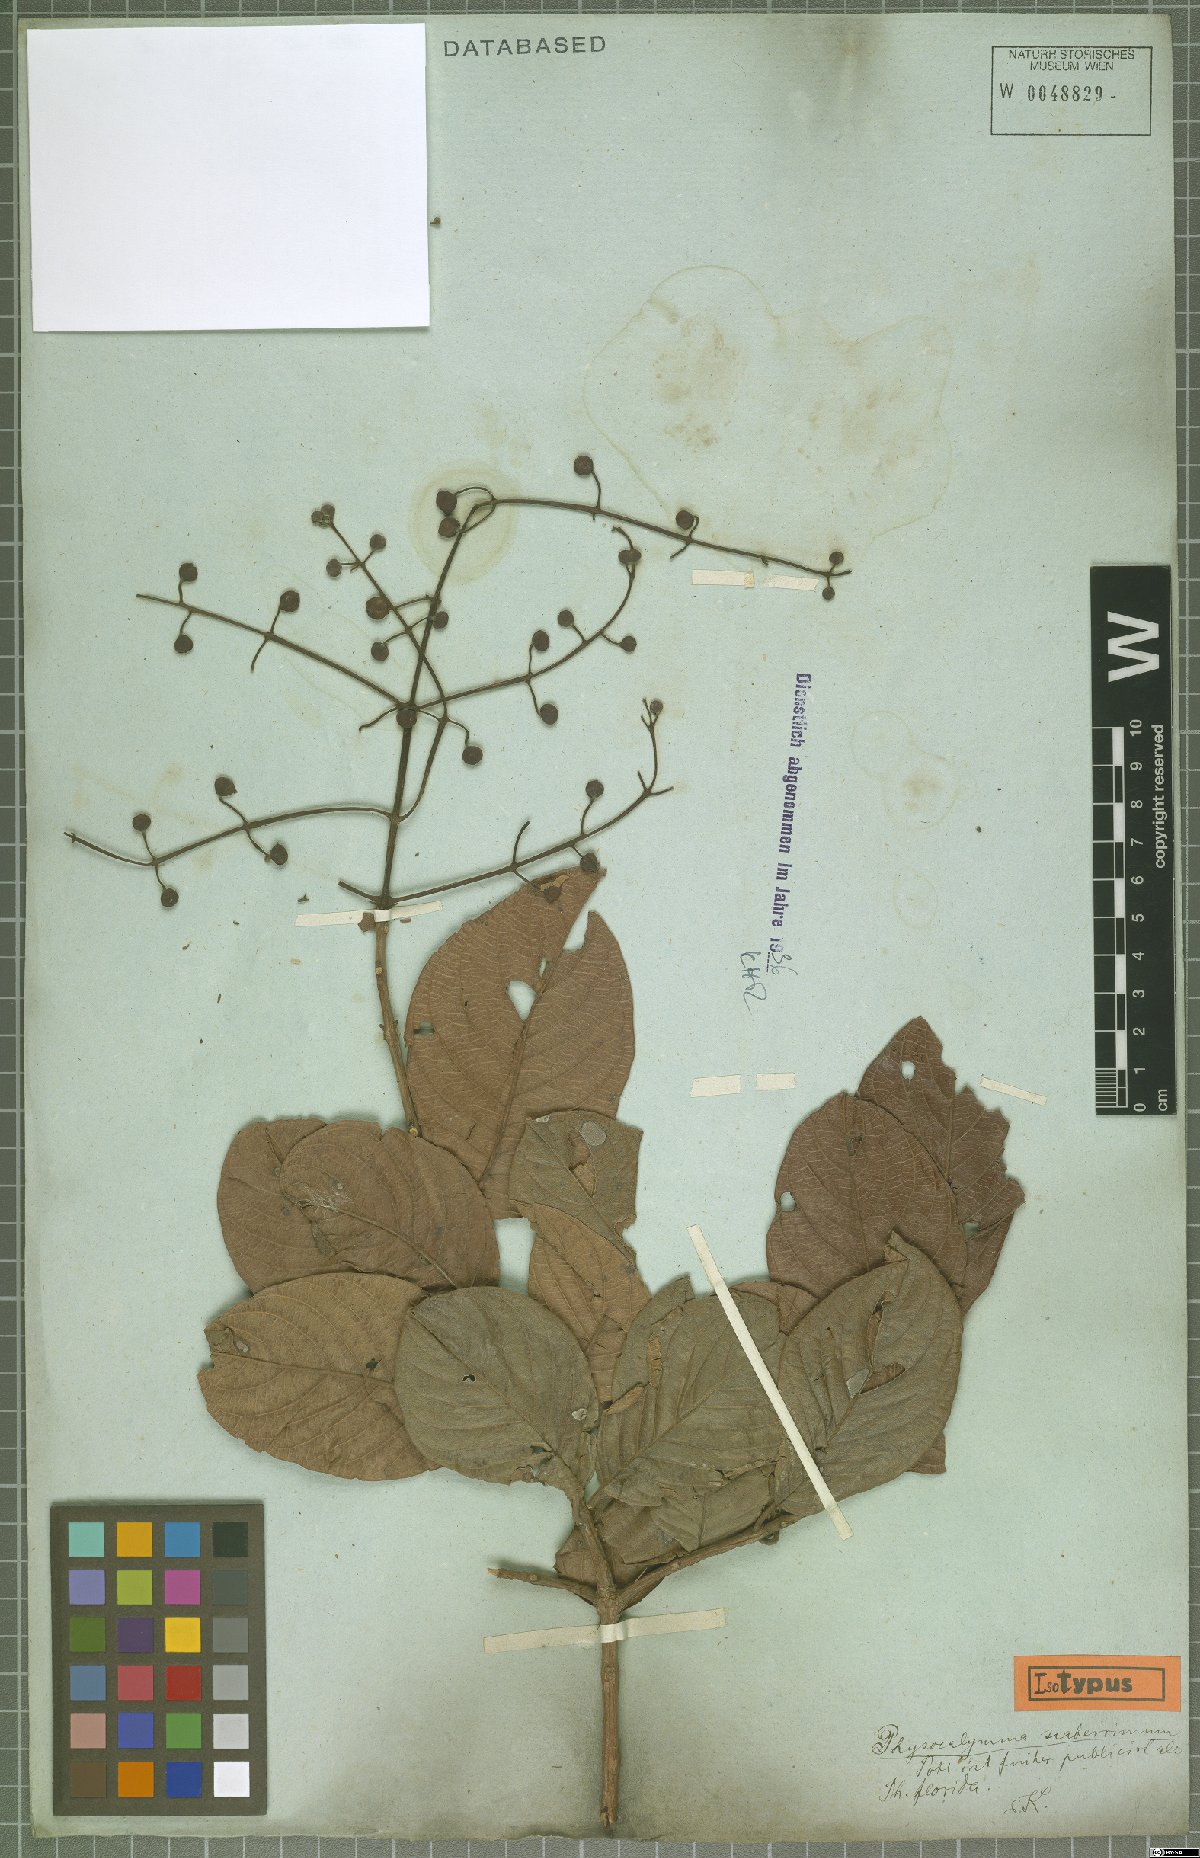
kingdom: Plantae
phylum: Tracheophyta
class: Magnoliopsida
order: Myrtales
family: Lythraceae
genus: Physocalymma
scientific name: Physocalymma scaberrimum
